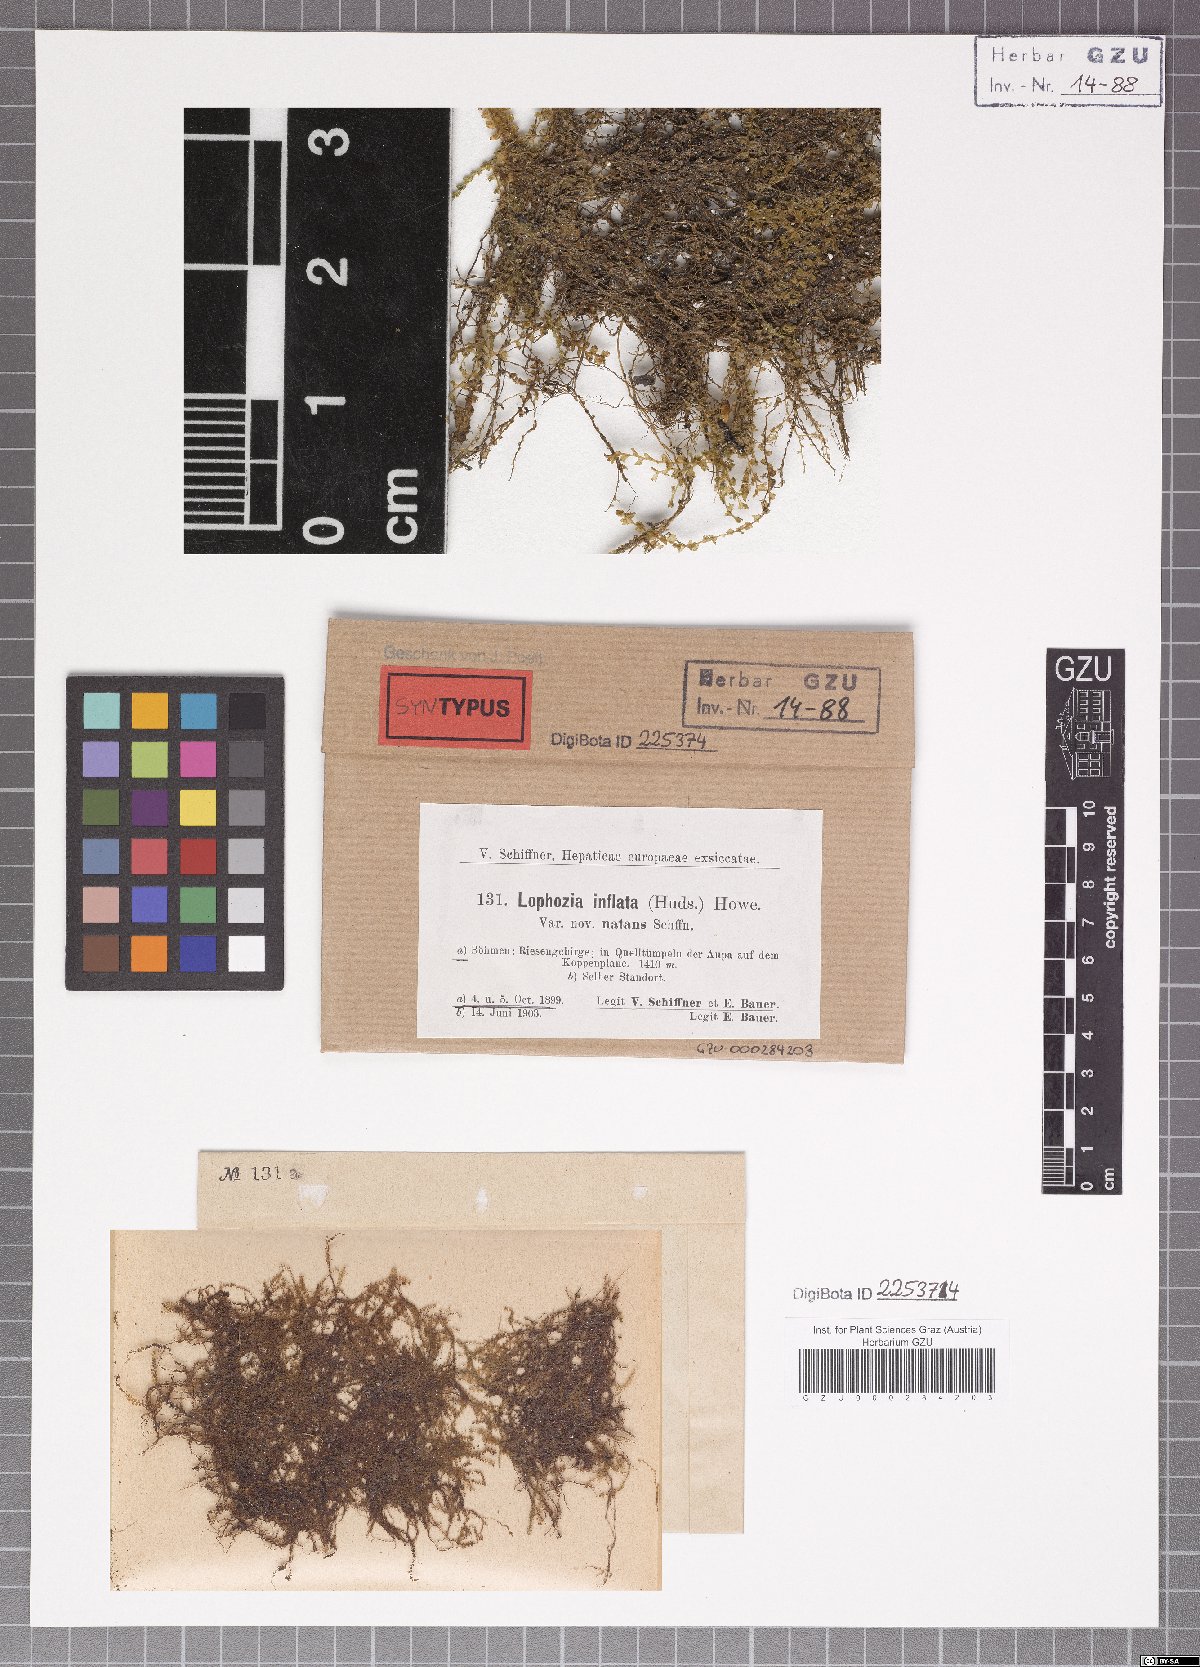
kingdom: Plantae
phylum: Marchantiophyta
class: Jungermanniopsida
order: Jungermanniales
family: Anastrophyllaceae
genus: Gymnocolea
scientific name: Gymnocolea inflata
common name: Inflated notchwort
